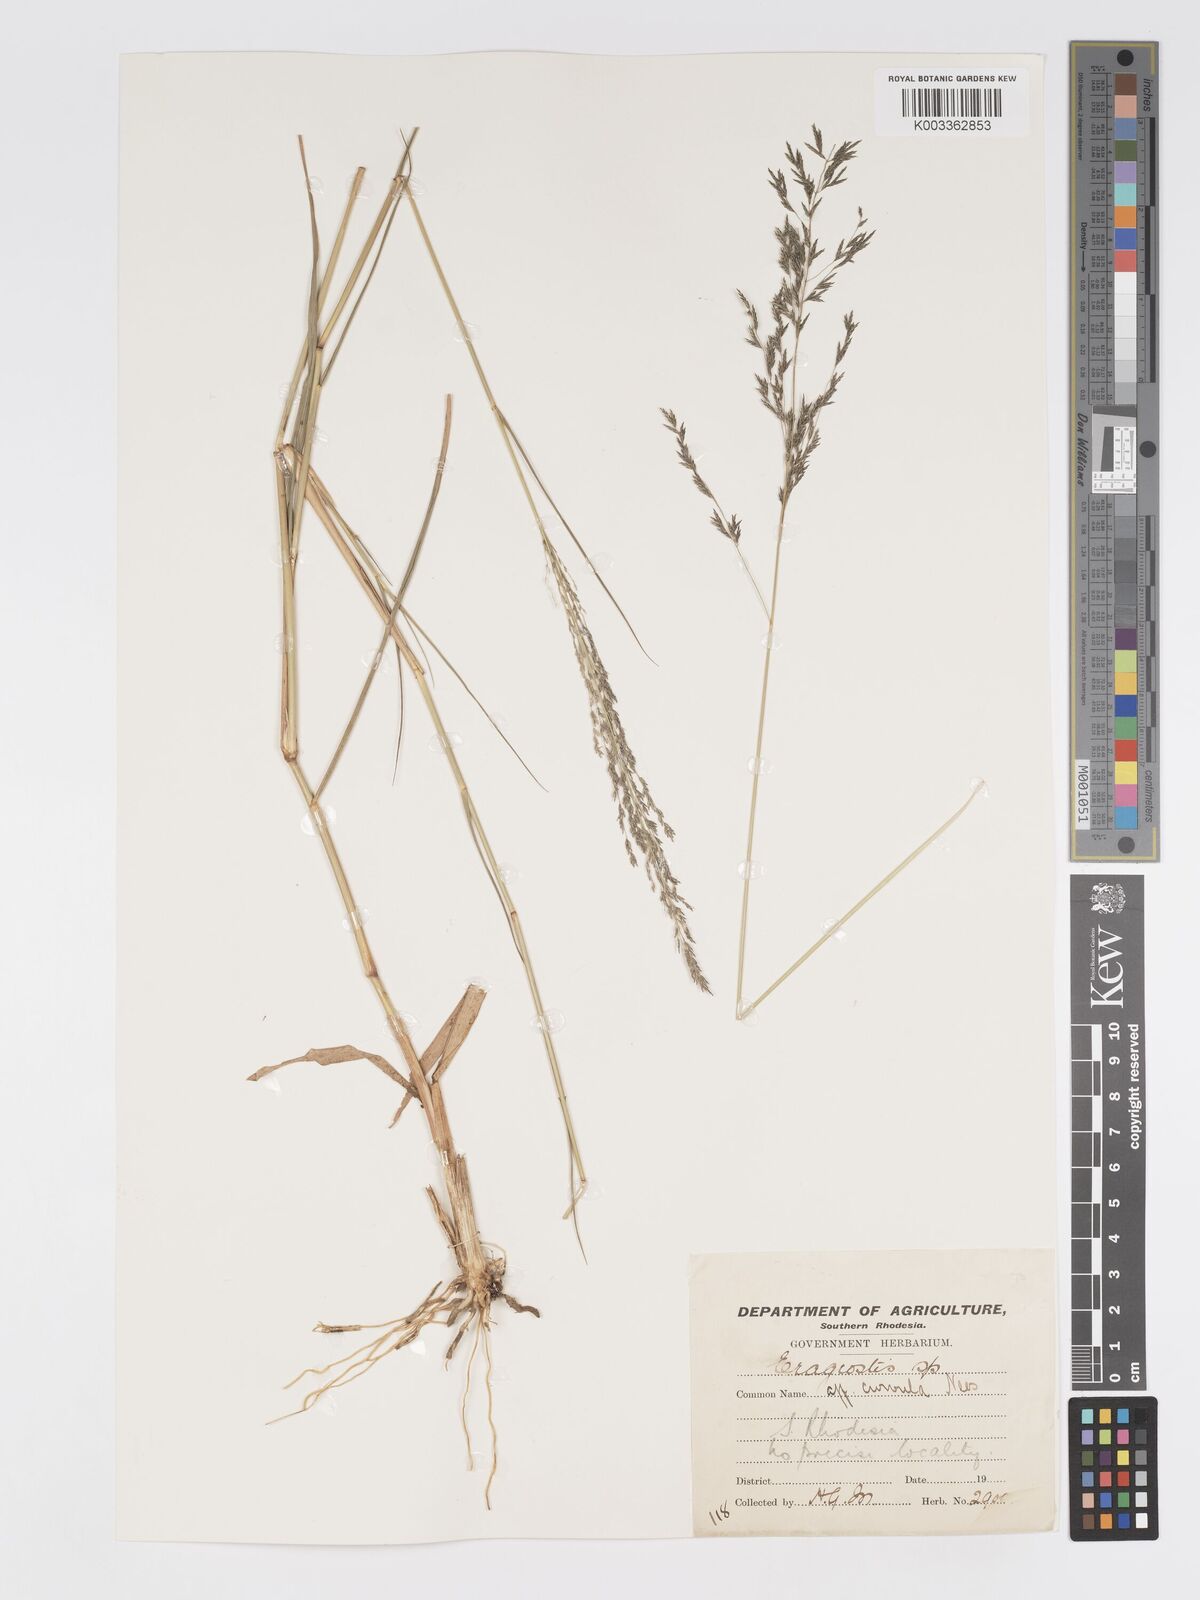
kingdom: Plantae
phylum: Tracheophyta
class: Liliopsida
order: Poales
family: Poaceae
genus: Eragrostis
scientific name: Eragrostis cylindriflora
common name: Cylinderflower lovegrass
